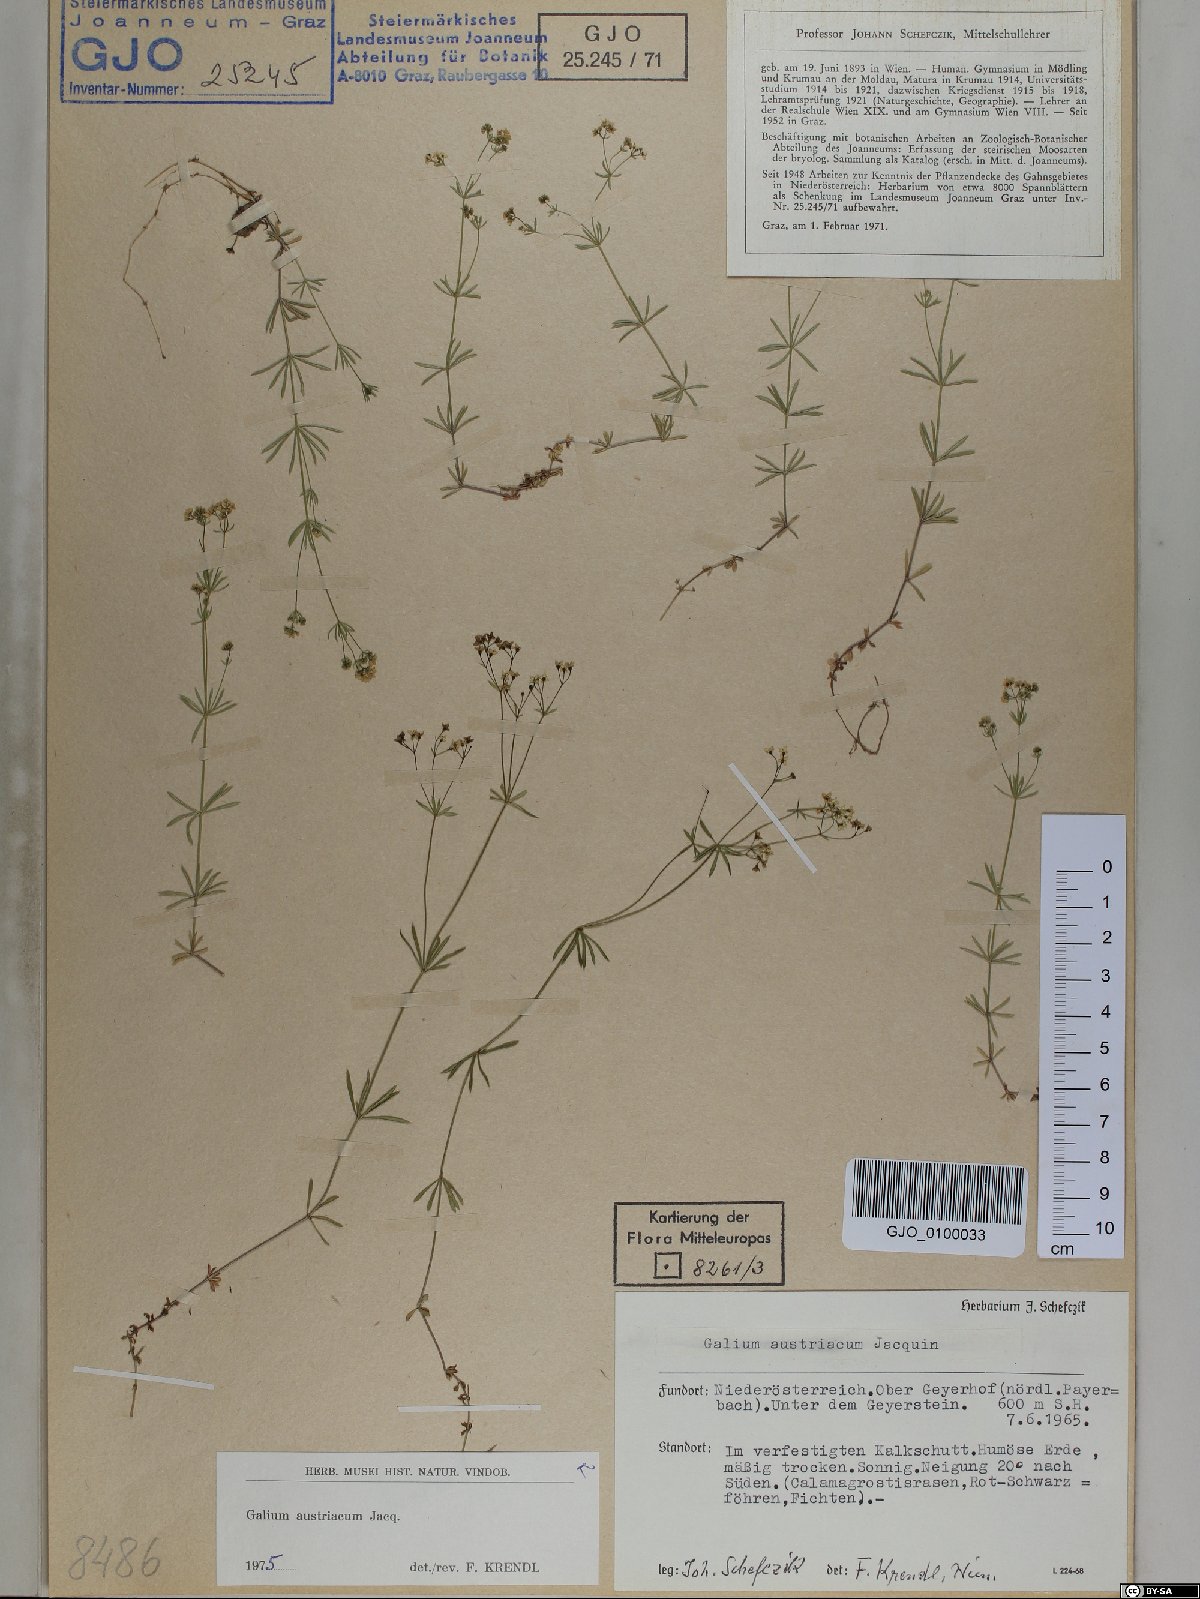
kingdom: Plantae
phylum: Tracheophyta
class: Magnoliopsida
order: Gentianales
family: Rubiaceae
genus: Galium
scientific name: Galium austriacum
